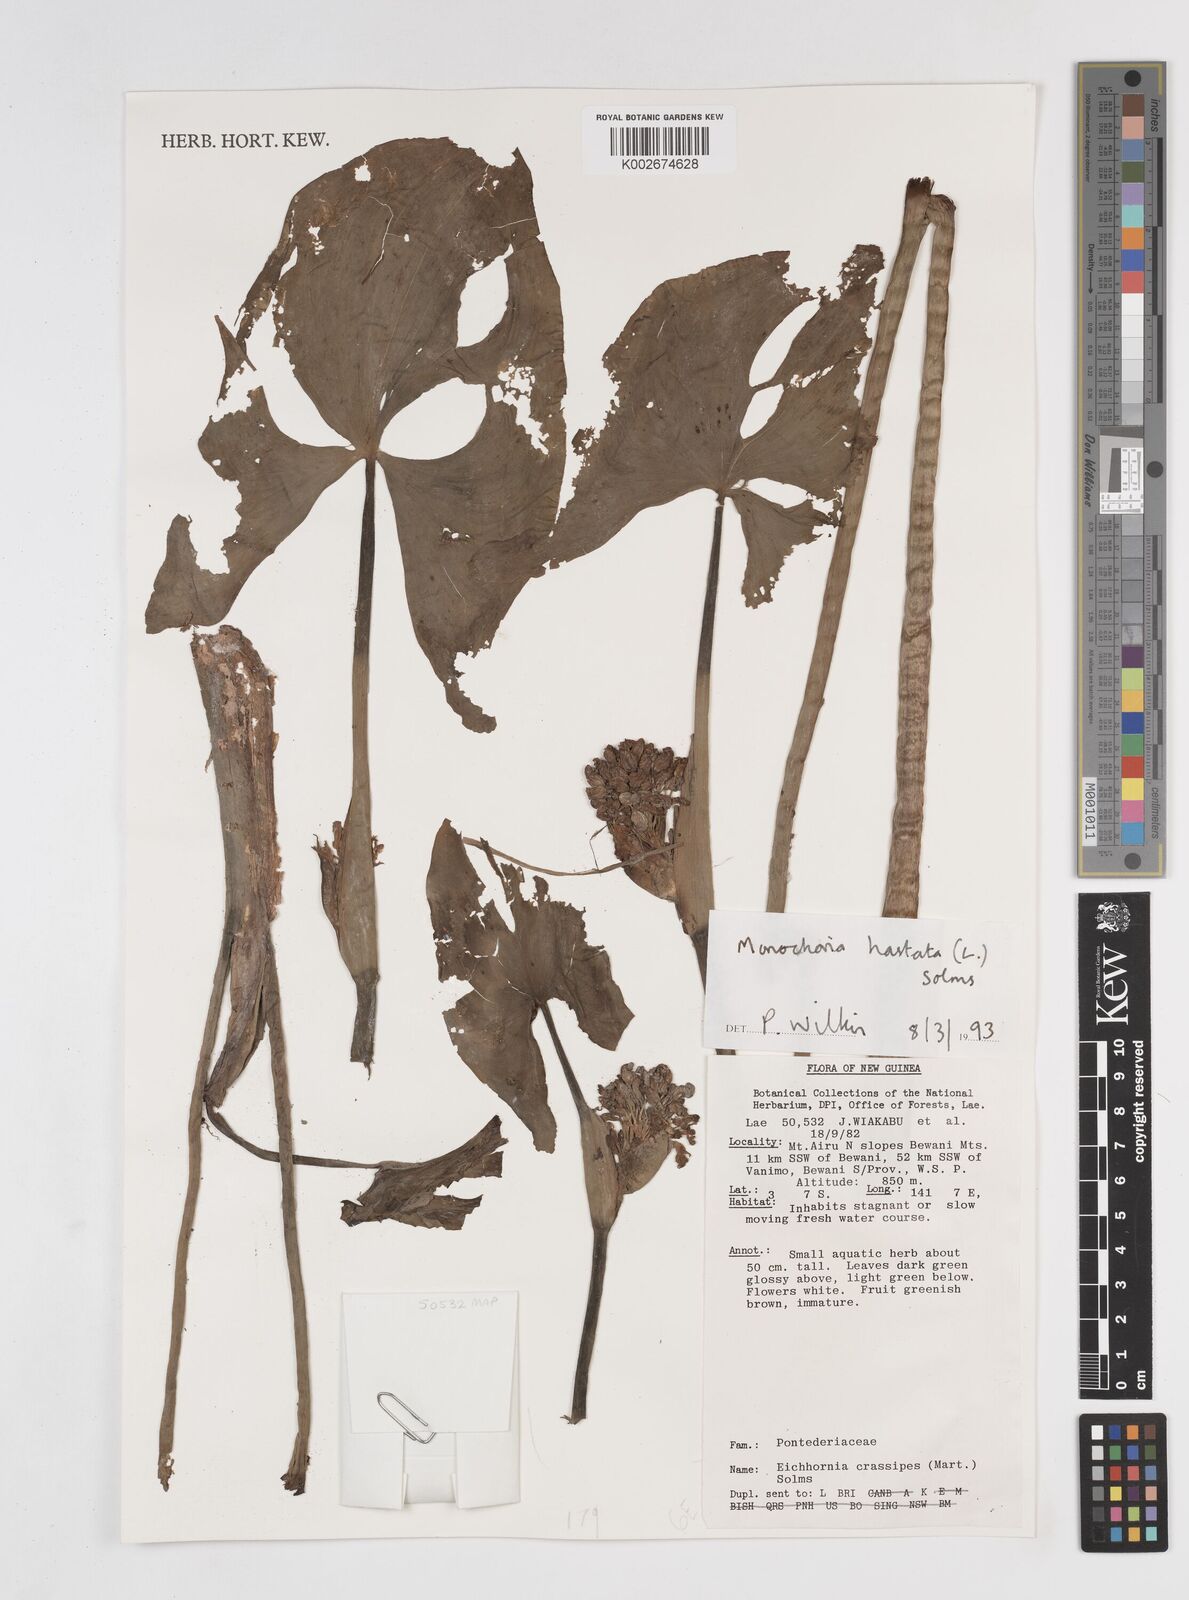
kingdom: Plantae
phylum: Tracheophyta
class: Liliopsida
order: Commelinales
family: Pontederiaceae
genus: Pontederia
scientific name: Pontederia hastata
